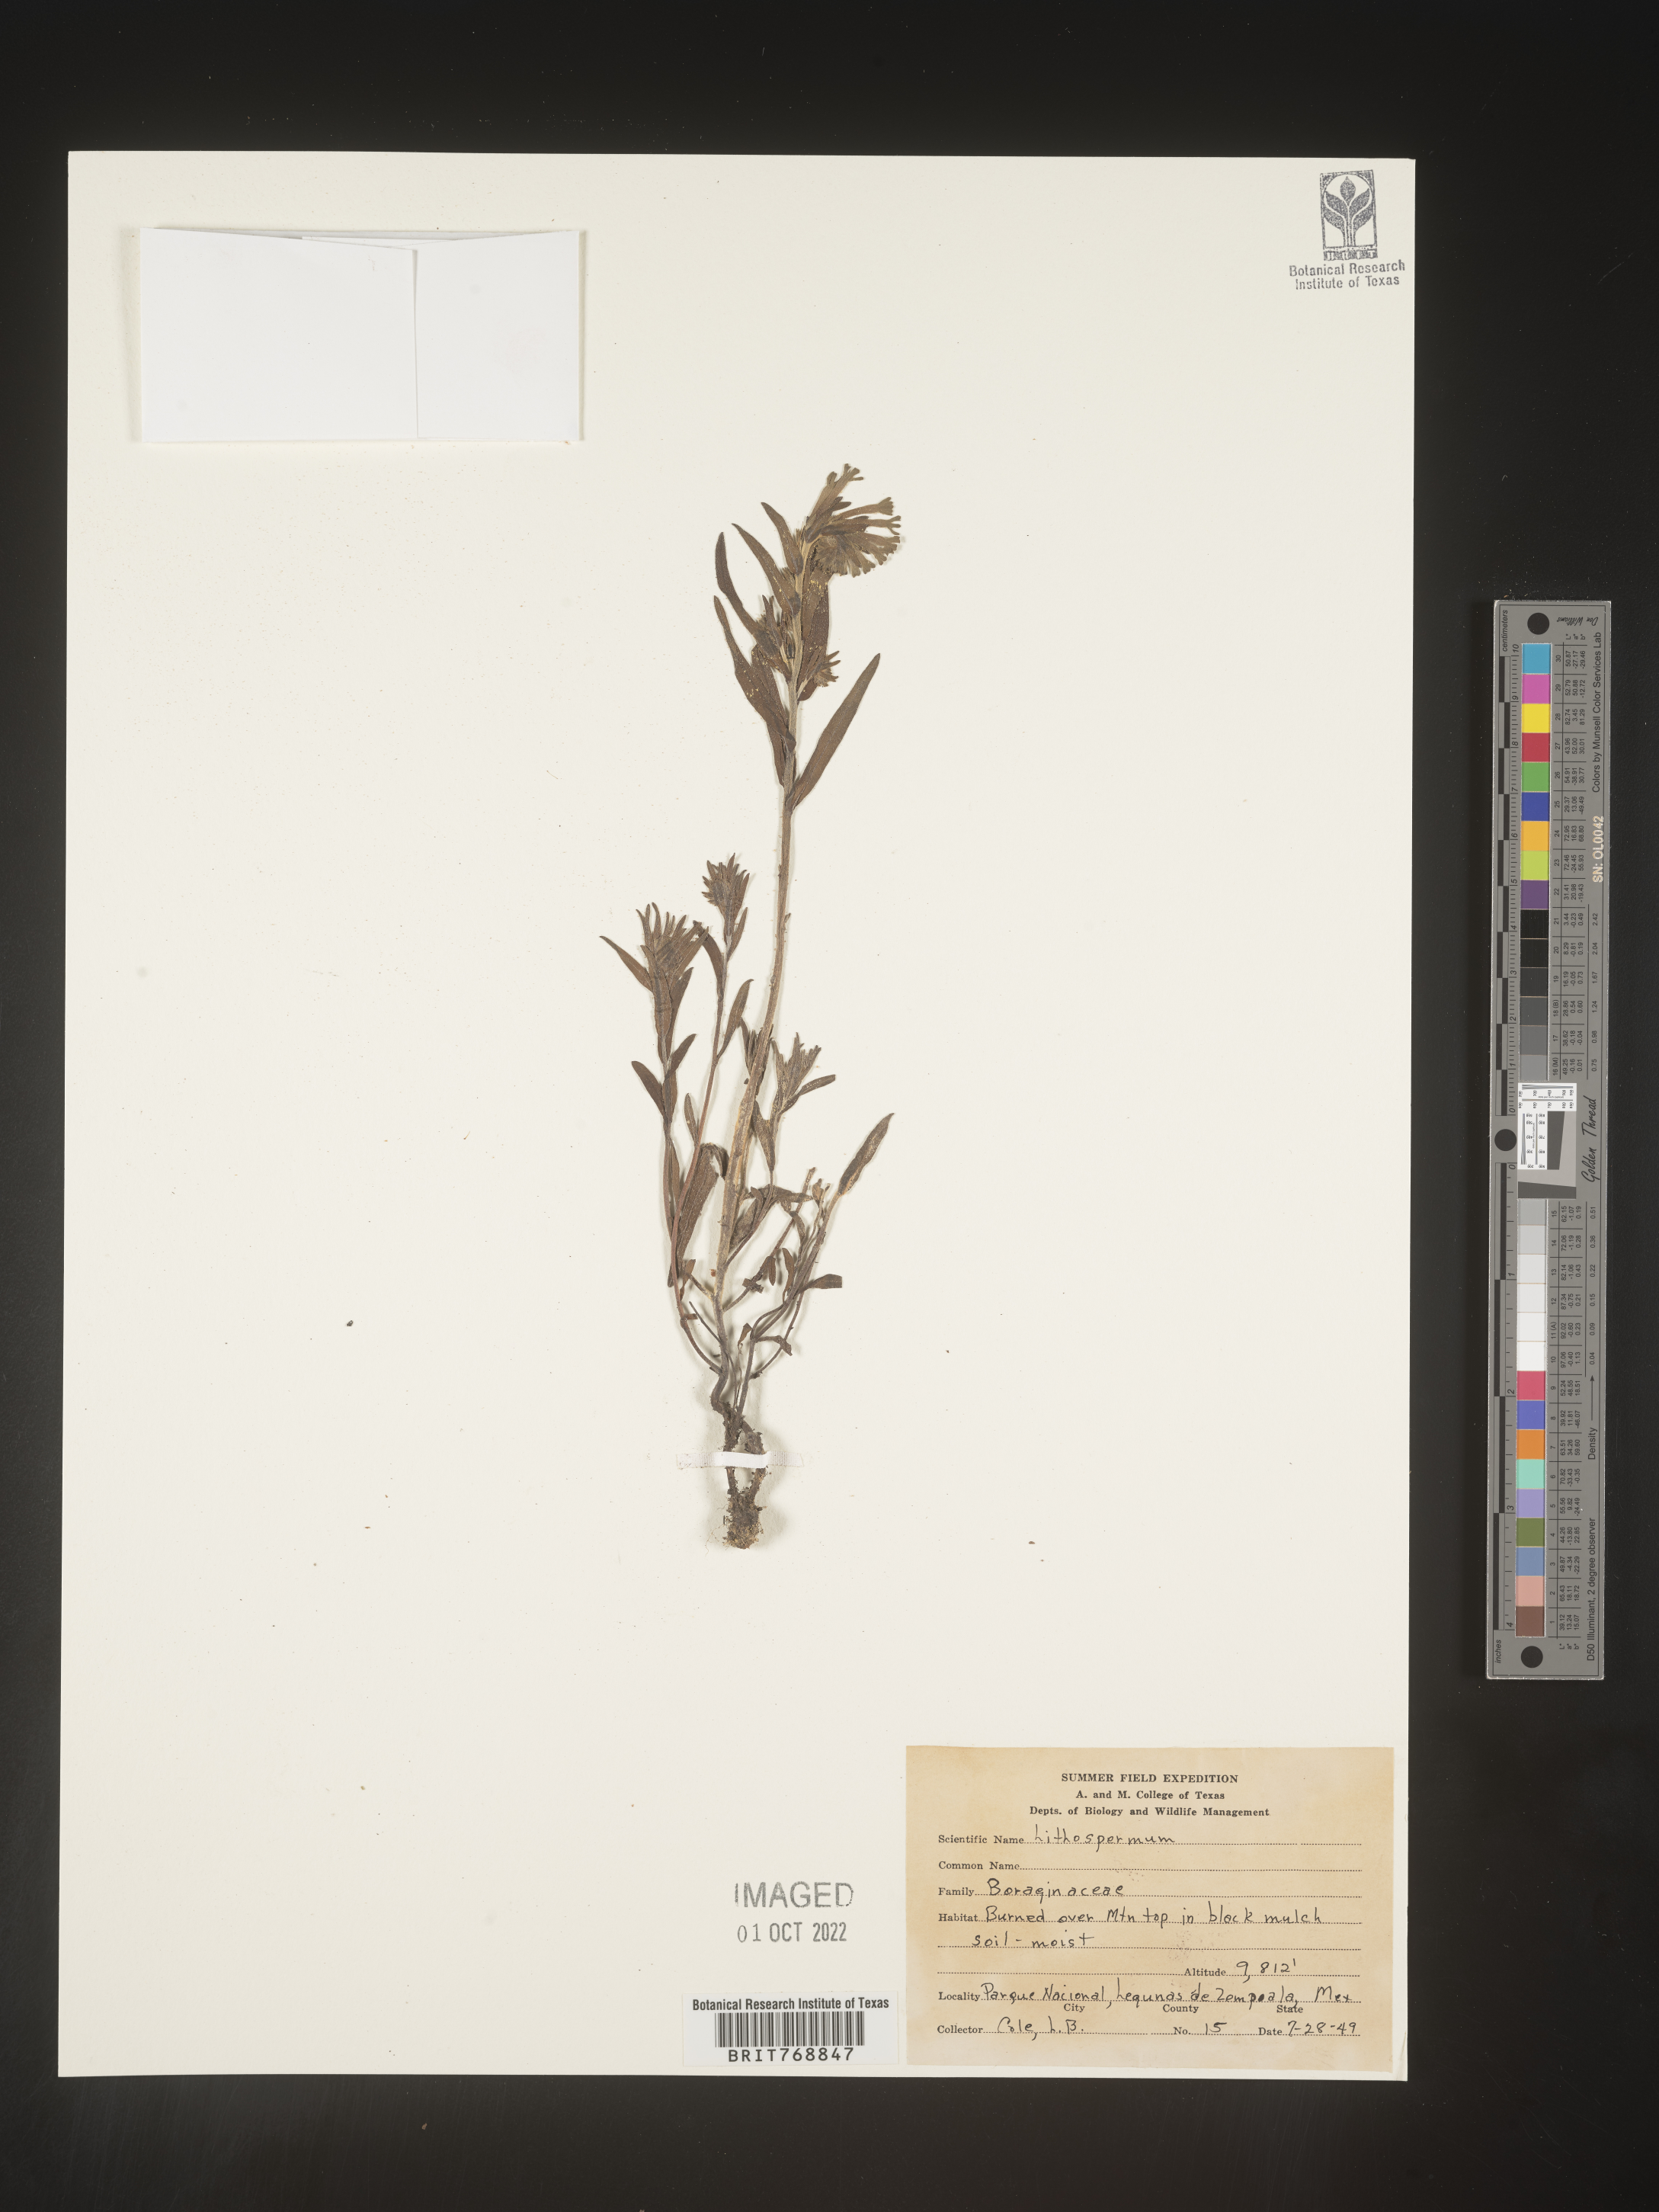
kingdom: Plantae
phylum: Tracheophyta
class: Magnoliopsida
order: Boraginales
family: Boraginaceae
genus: Lithospermum
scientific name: Lithospermum
